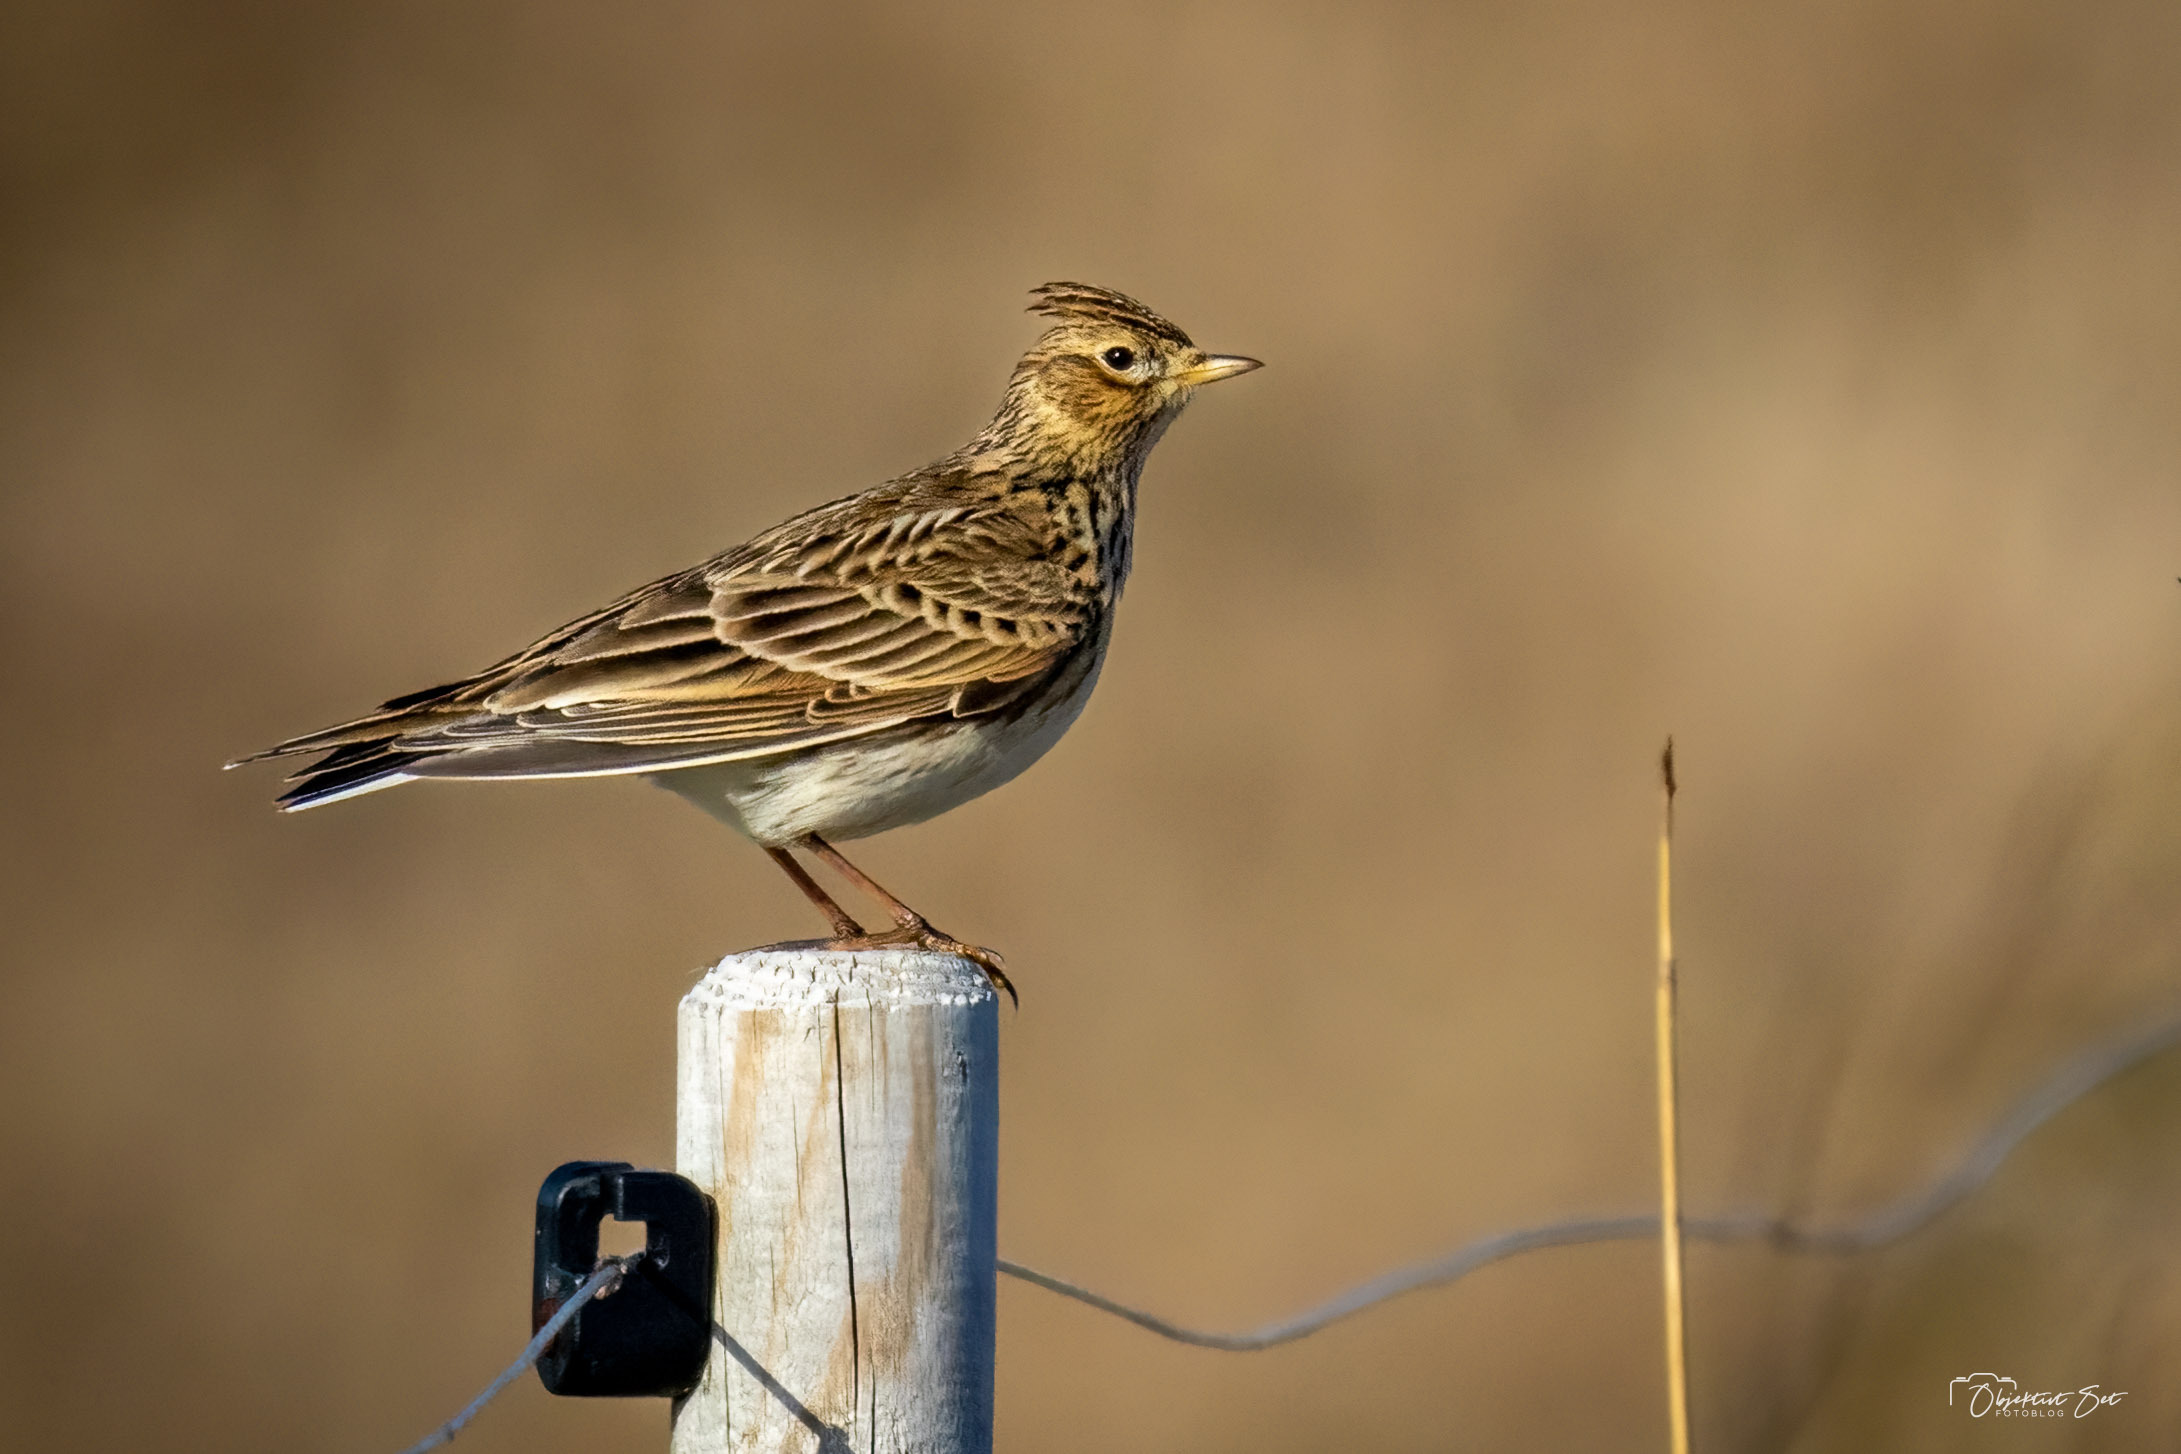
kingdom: Animalia
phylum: Chordata
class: Aves
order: Passeriformes
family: Alaudidae
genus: Alauda
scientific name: Alauda arvensis
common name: Sanglærke
